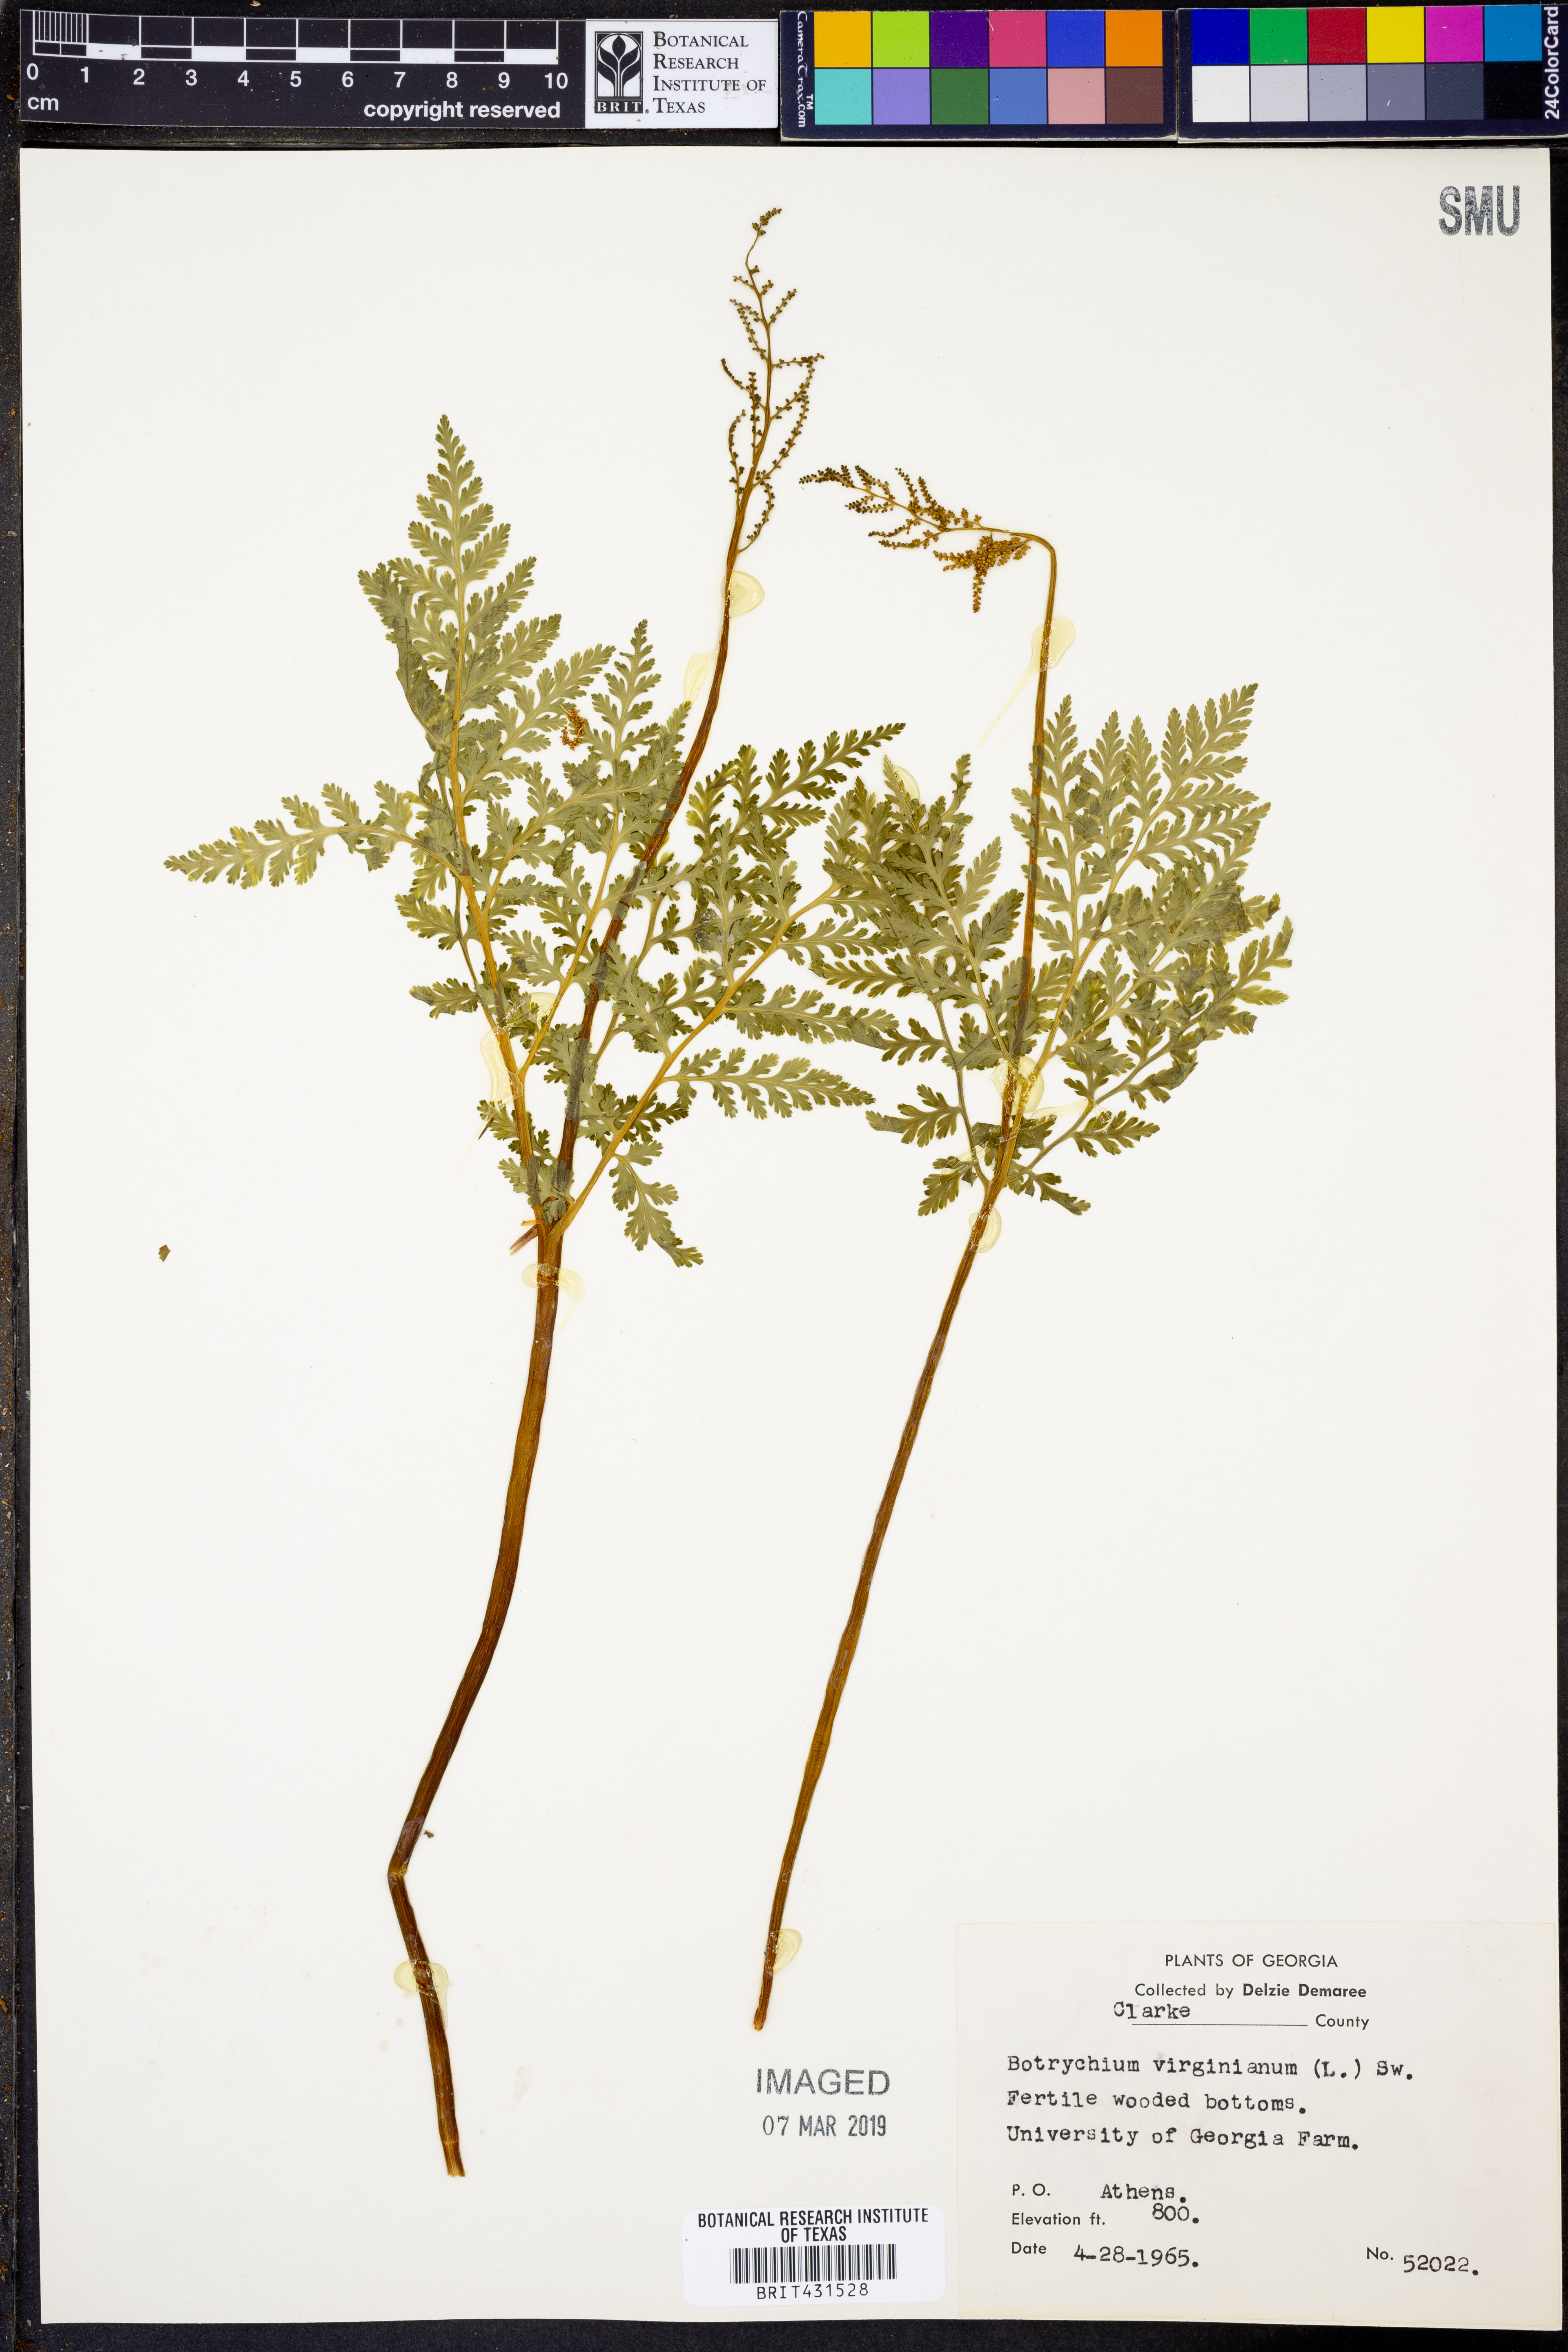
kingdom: Plantae
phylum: Tracheophyta
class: Polypodiopsida
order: Ophioglossales
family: Ophioglossaceae
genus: Botrypus
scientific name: Botrypus virginianus
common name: Common grapefern
